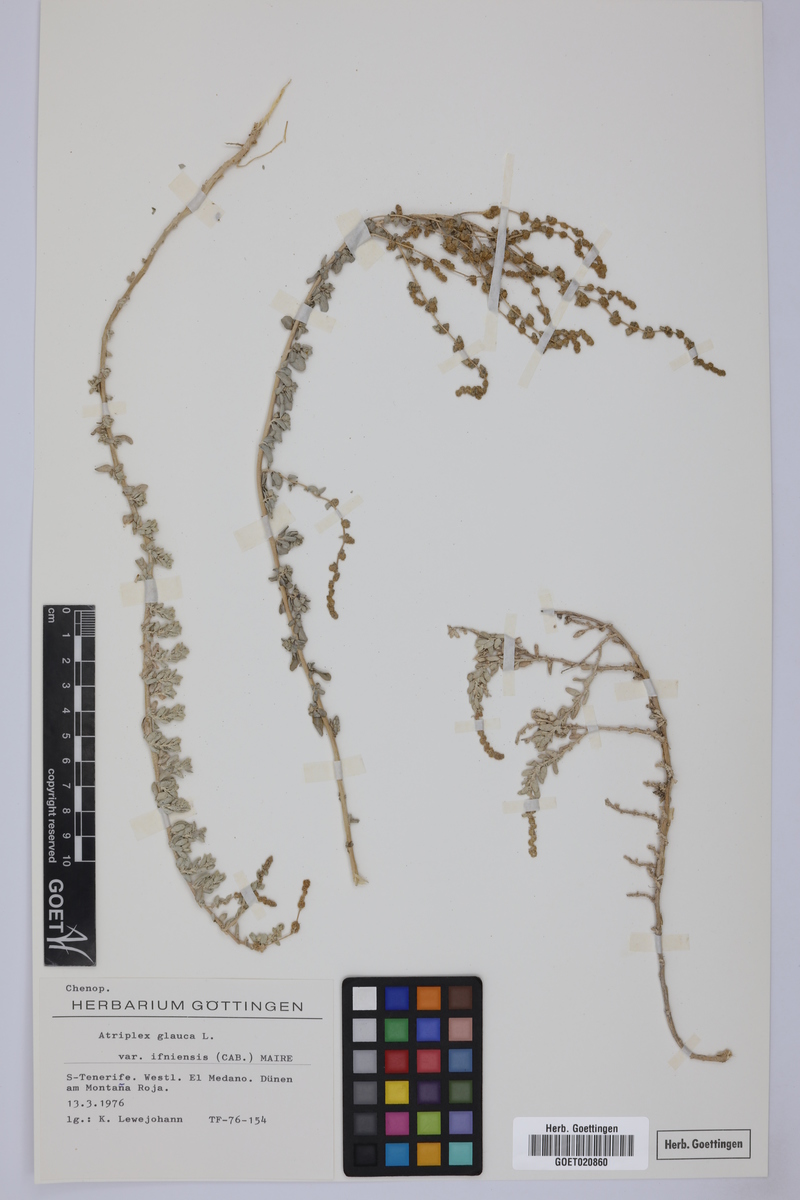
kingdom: Plantae
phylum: Tracheophyta
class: Magnoliopsida
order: Caryophyllales
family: Amaranthaceae
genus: Atriplex
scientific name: Atriplex glauca
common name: Waxy saltbush
